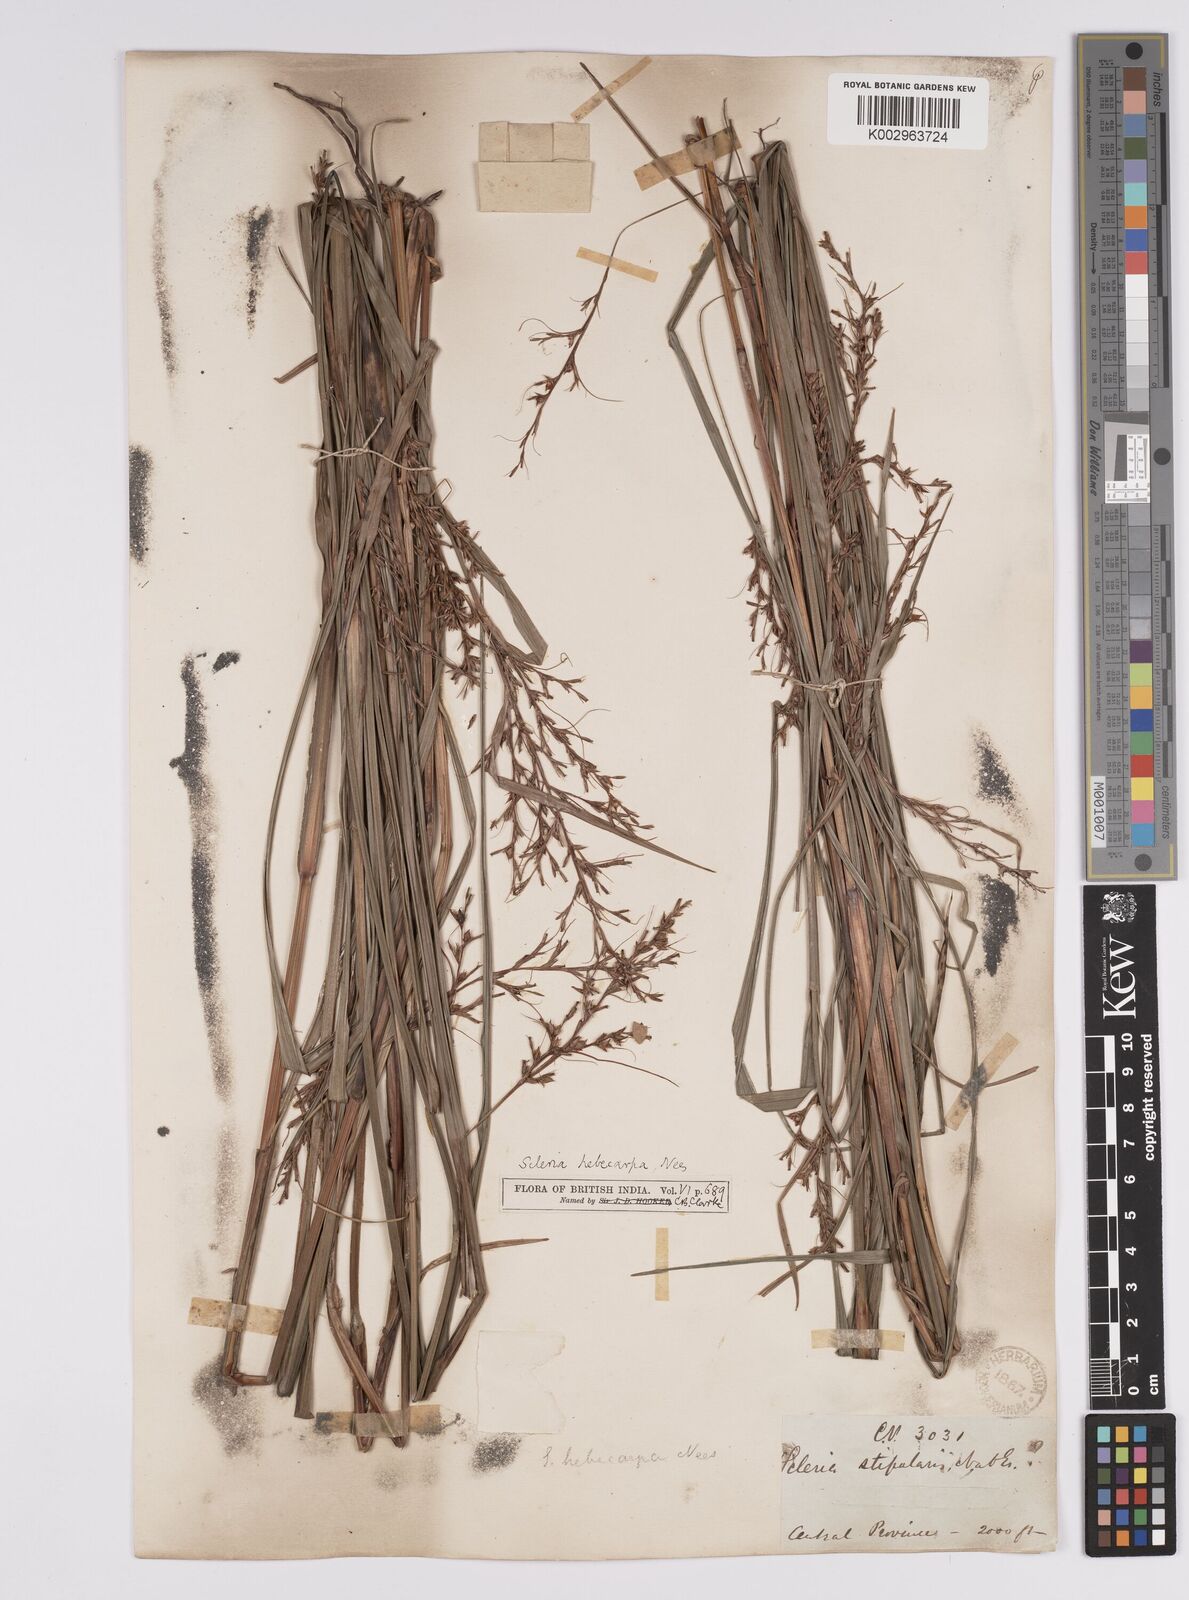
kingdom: Plantae
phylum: Tracheophyta
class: Liliopsida
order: Poales
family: Cyperaceae
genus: Scleria
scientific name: Scleria levis
